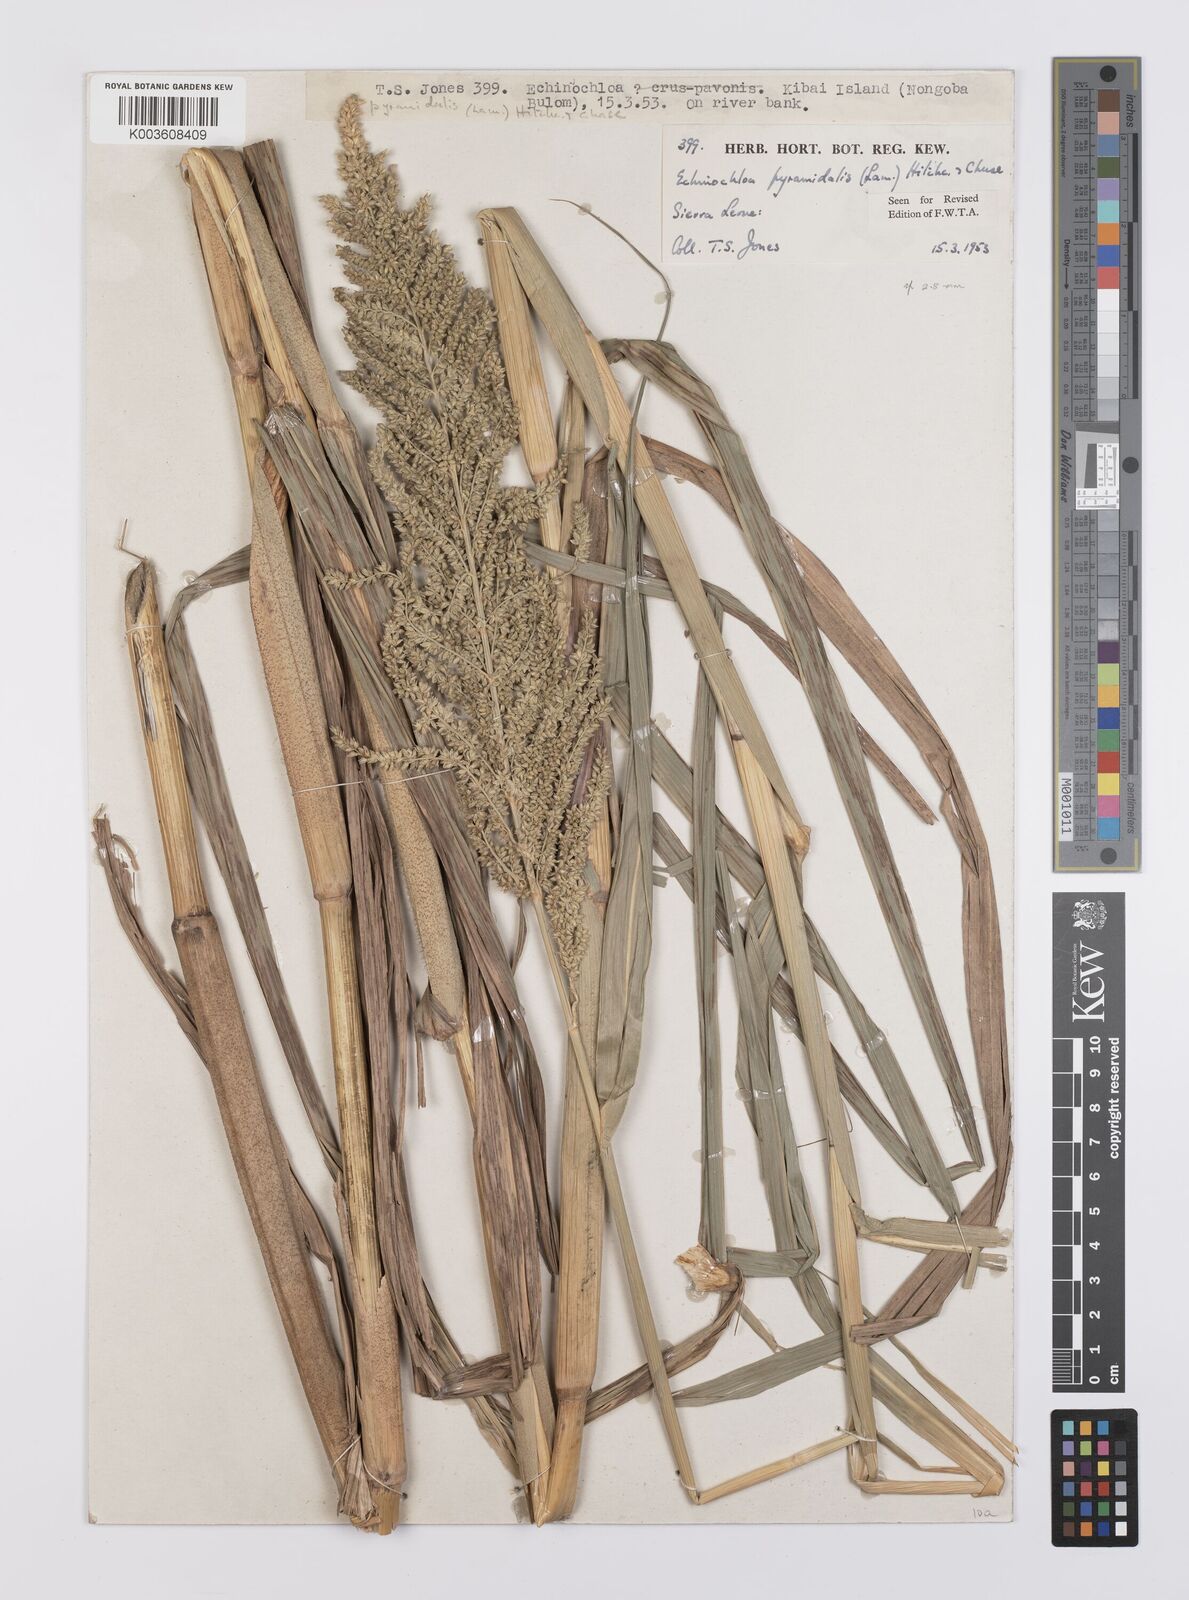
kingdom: Plantae
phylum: Tracheophyta
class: Liliopsida
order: Poales
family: Poaceae
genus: Echinochloa
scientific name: Echinochloa pyramidalis
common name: Antelope grass
